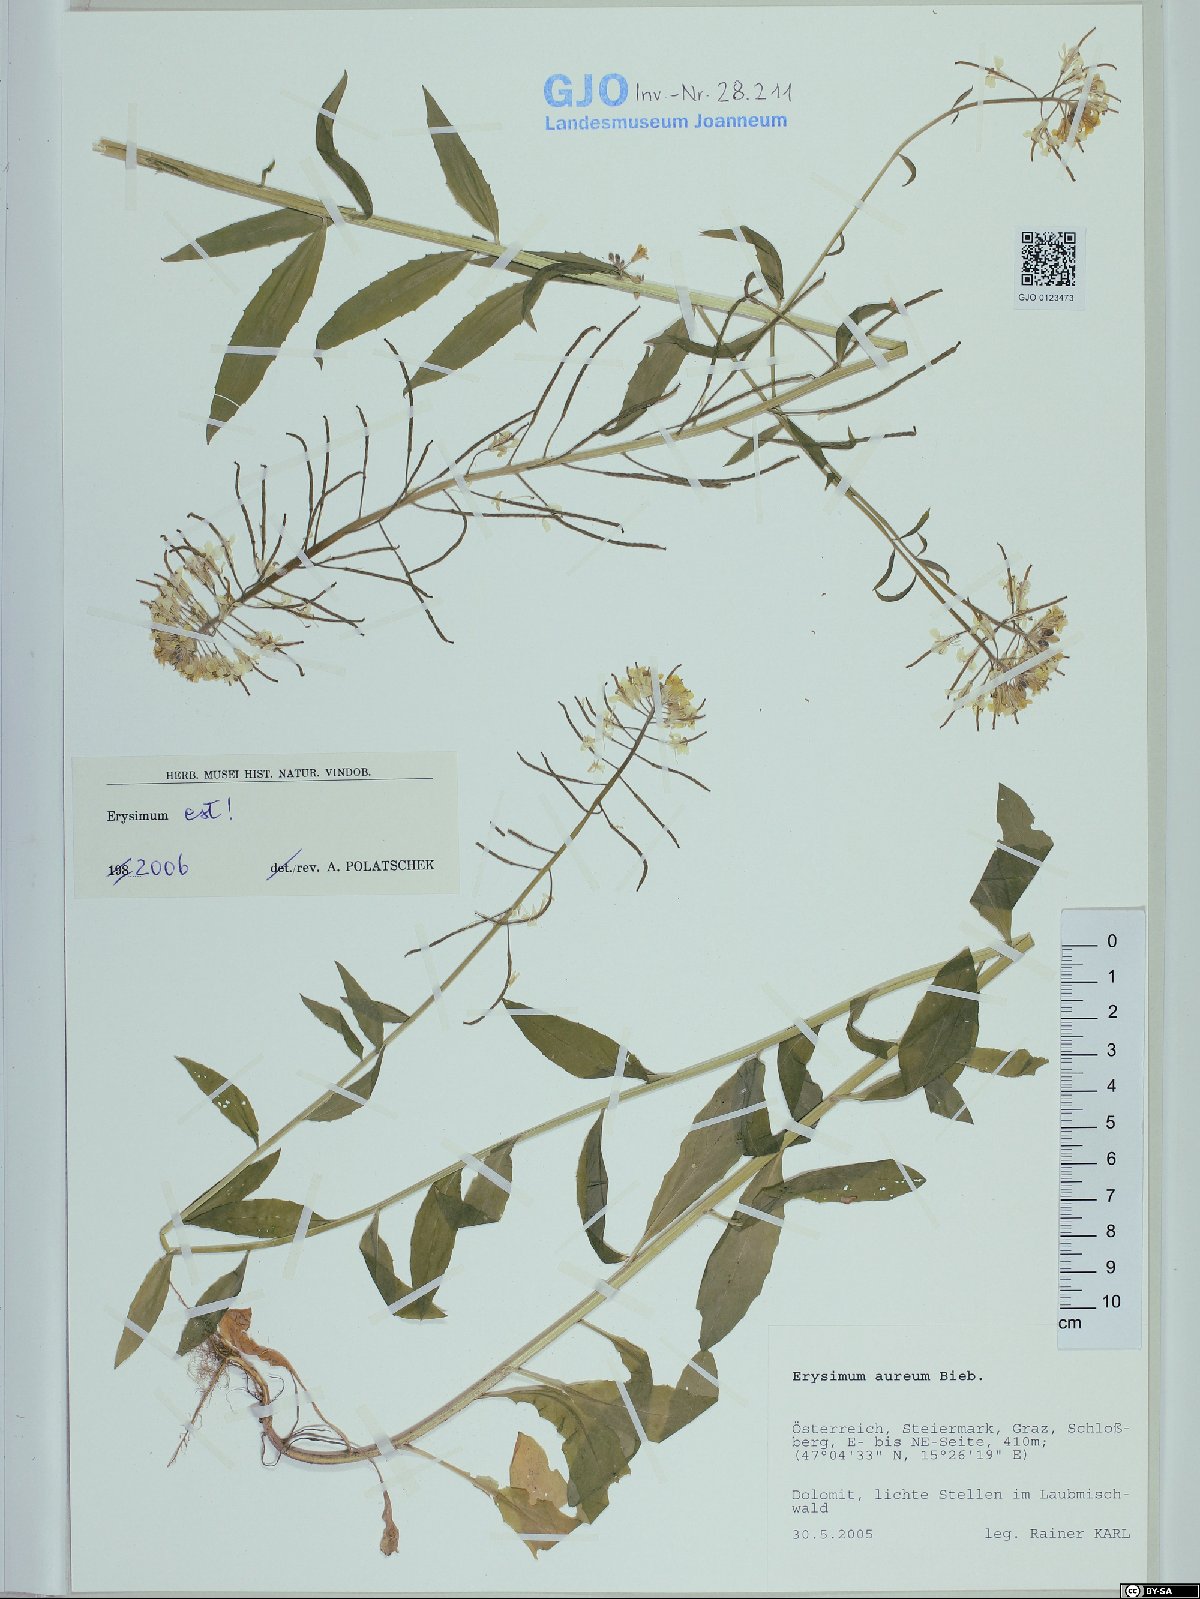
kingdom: Plantae
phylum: Tracheophyta
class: Magnoliopsida
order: Brassicales
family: Brassicaceae
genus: Erysimum
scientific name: Erysimum aureum
